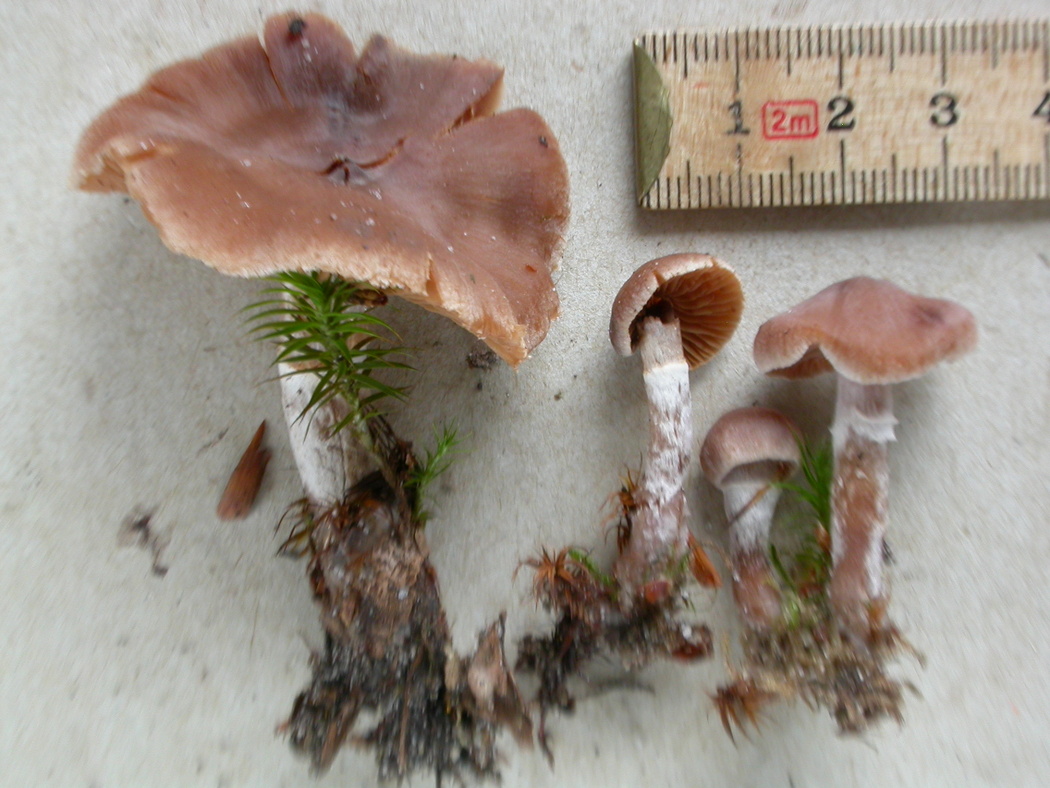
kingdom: Fungi
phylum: Basidiomycota
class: Agaricomycetes
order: Agaricales
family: Cortinariaceae
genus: Cortinarius
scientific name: Cortinarius comptulus
